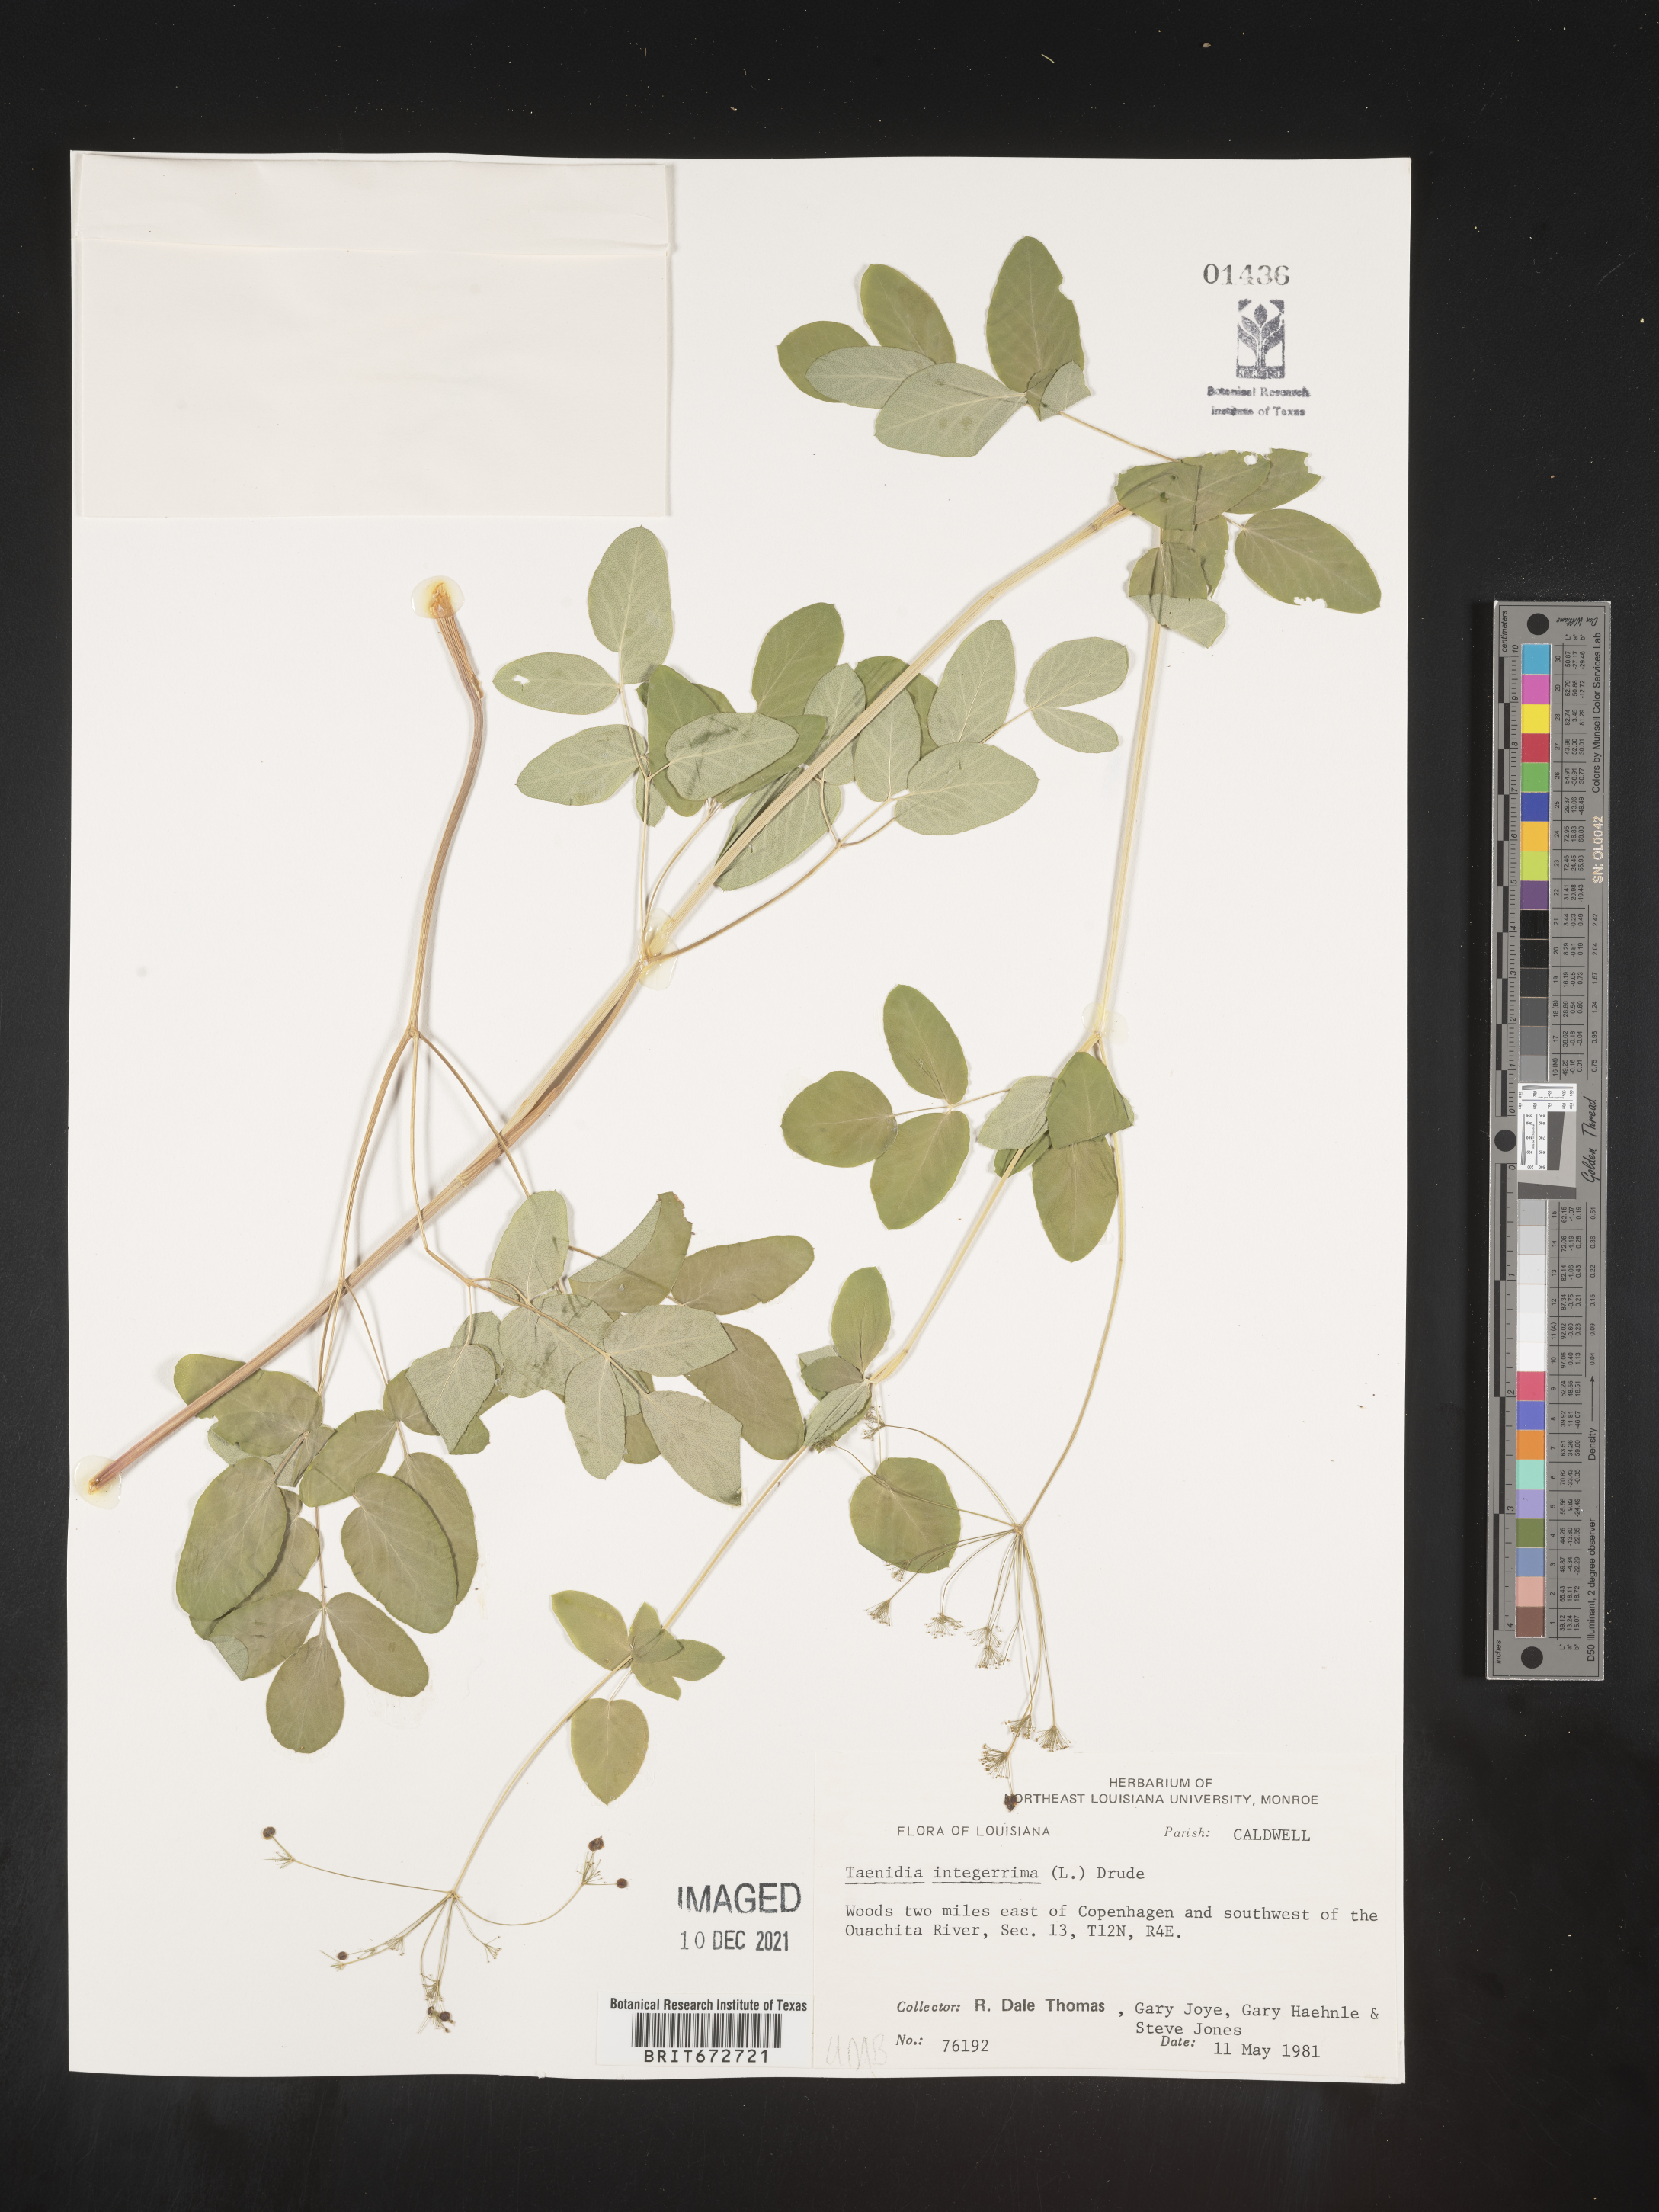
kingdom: Plantae
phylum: Tracheophyta
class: Magnoliopsida
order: Apiales
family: Apiaceae
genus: Taenidia
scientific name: Taenidia
